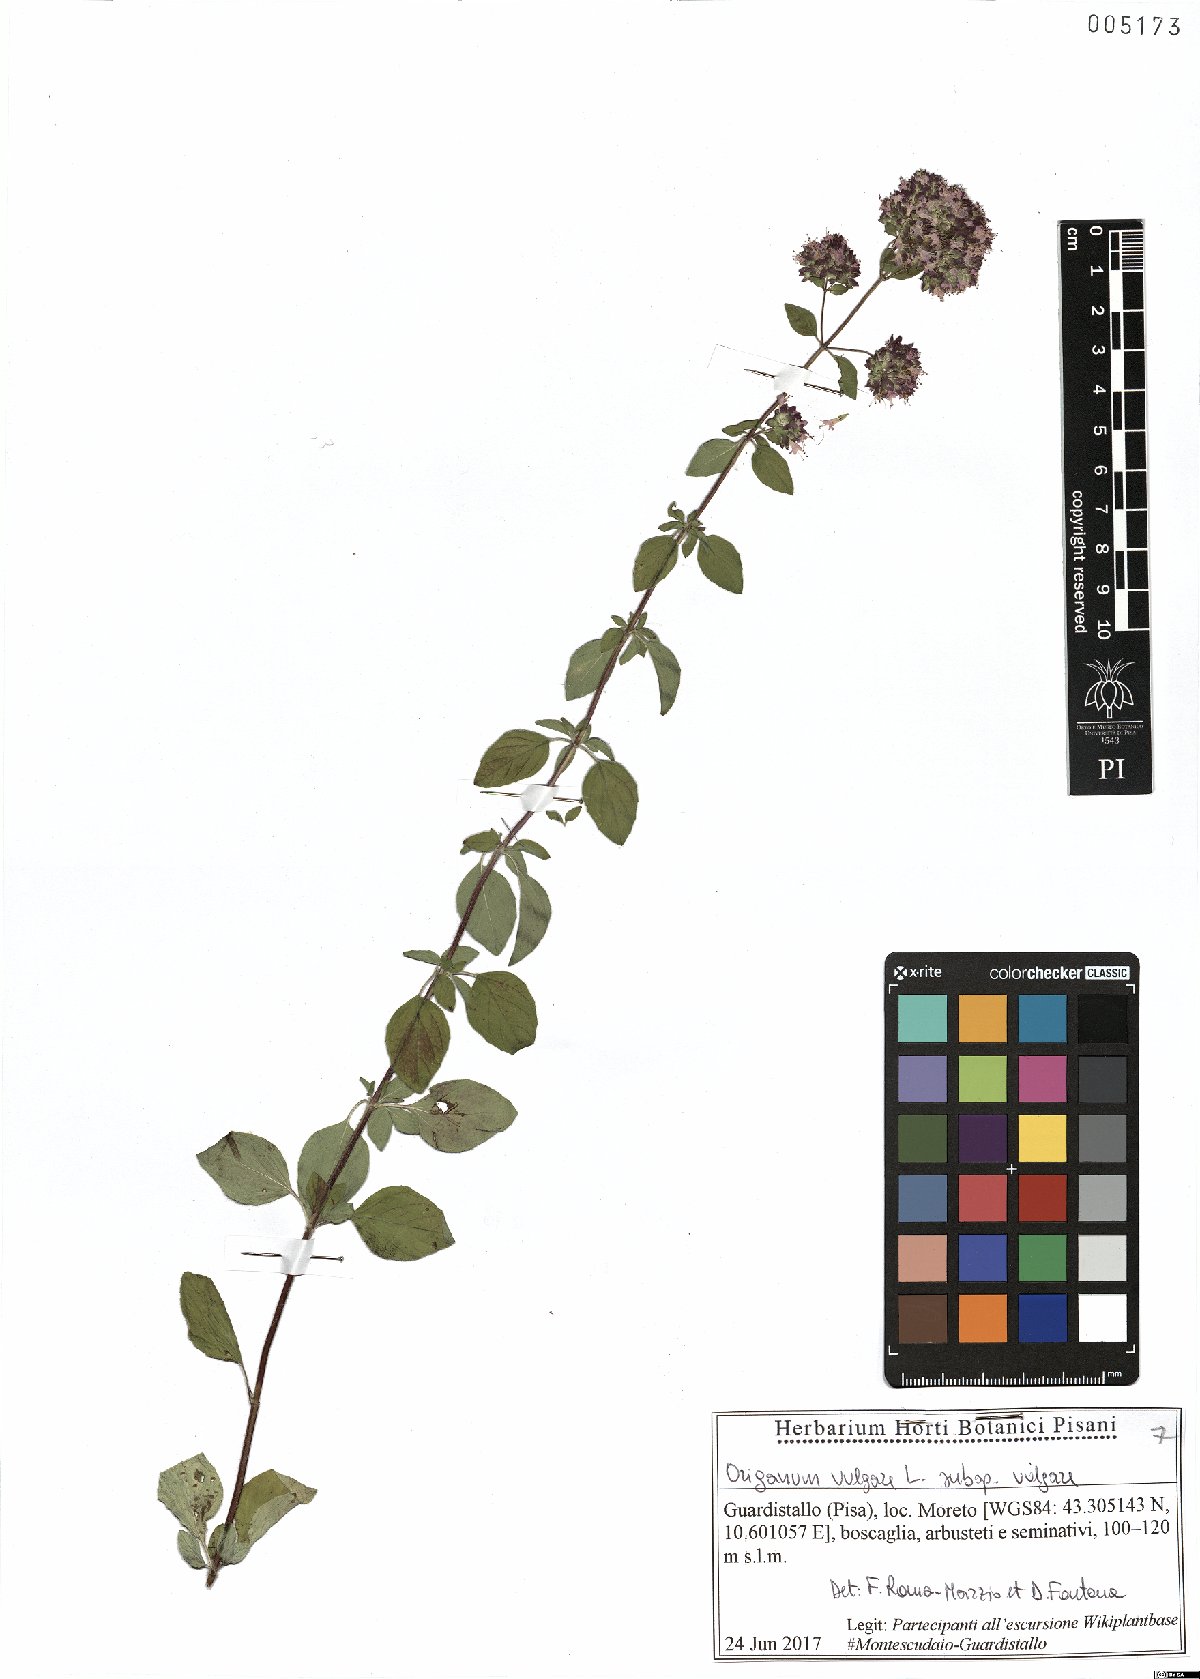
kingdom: Plantae
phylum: Tracheophyta
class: Magnoliopsida
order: Lamiales
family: Lamiaceae
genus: Origanum
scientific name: Origanum vulgare
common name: Wild marjoram
